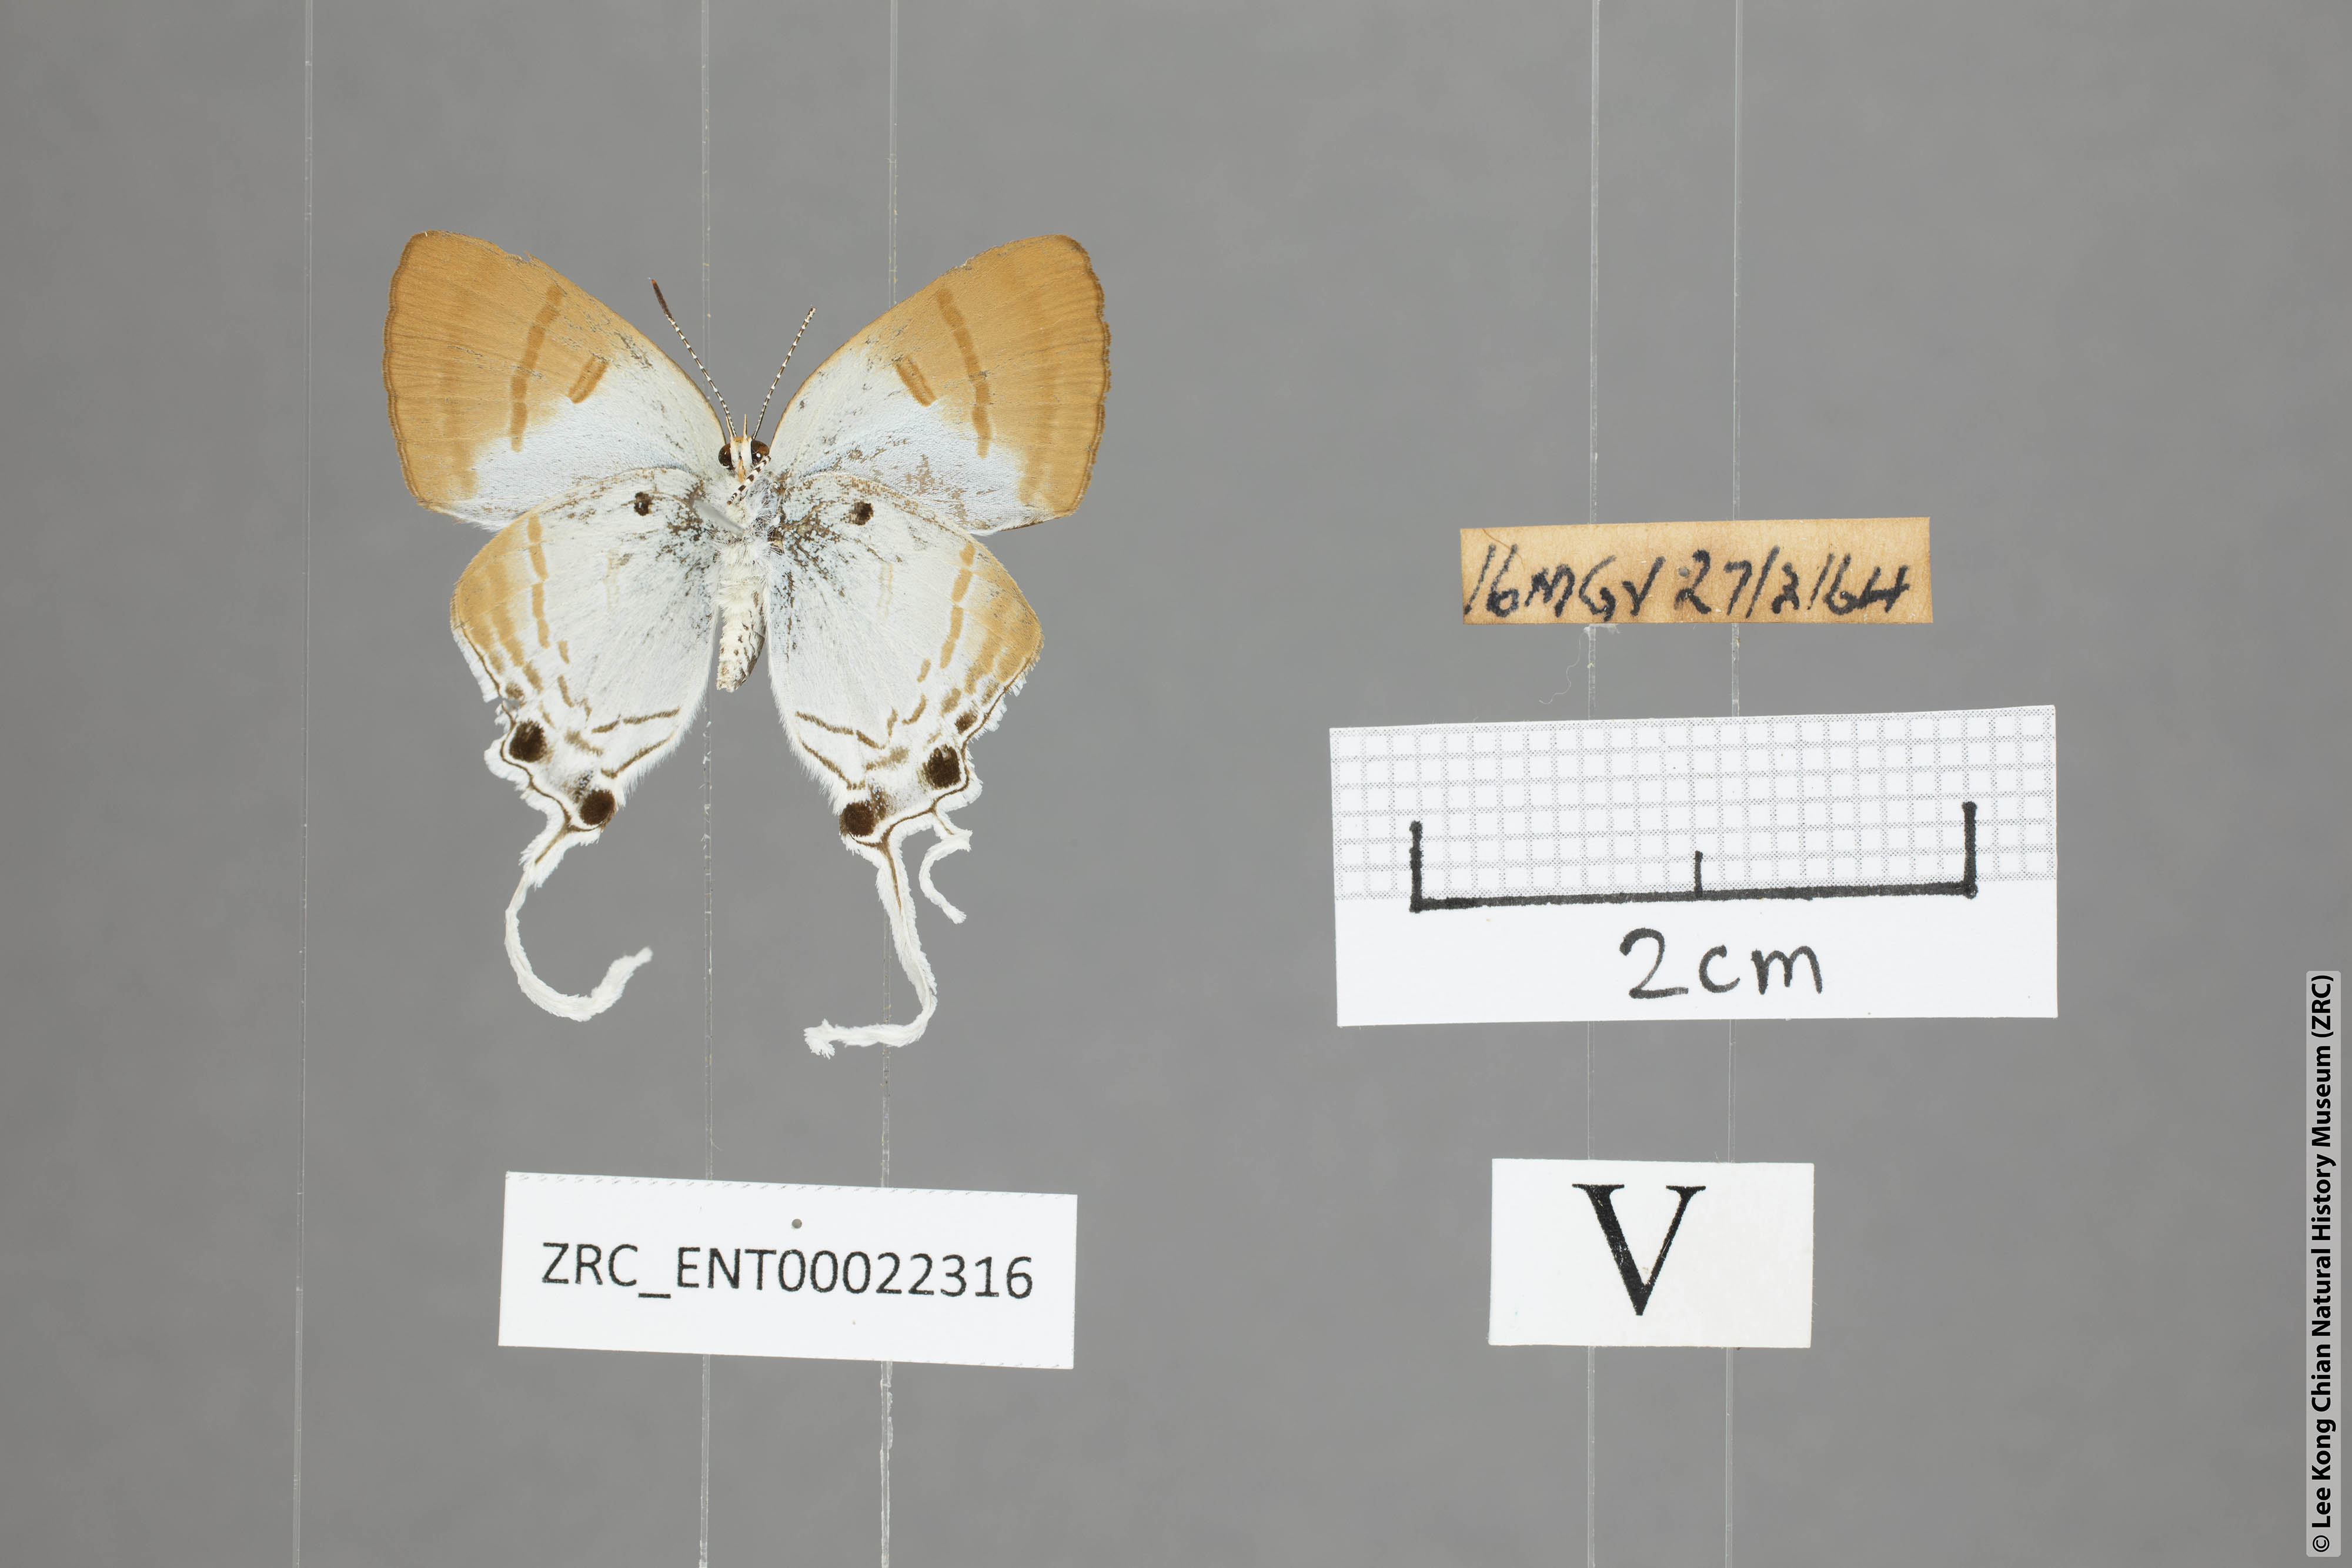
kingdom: Animalia
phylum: Arthropoda
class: Insecta
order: Lepidoptera
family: Lycaenidae
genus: Zeltus
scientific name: Zeltus amasa
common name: Fluffy tit
